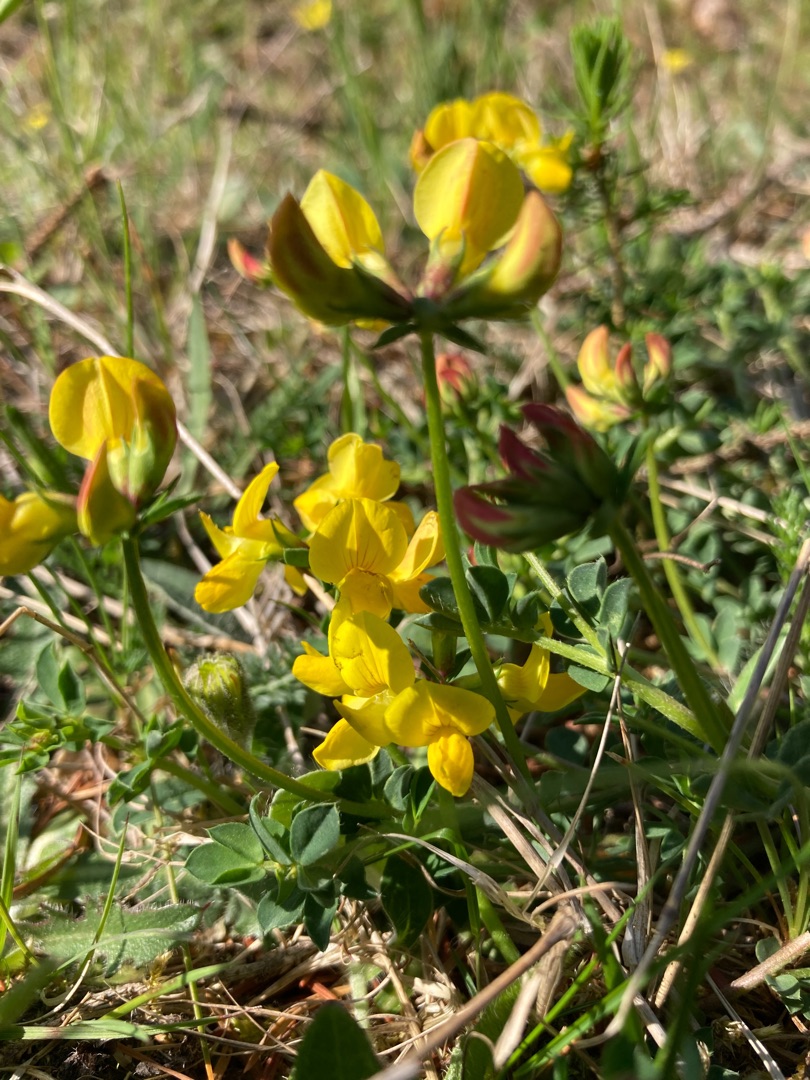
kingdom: Plantae
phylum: Tracheophyta
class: Magnoliopsida
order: Fabales
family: Fabaceae
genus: Lotus
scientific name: Lotus corniculatus
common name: Almindelig kællingetand
